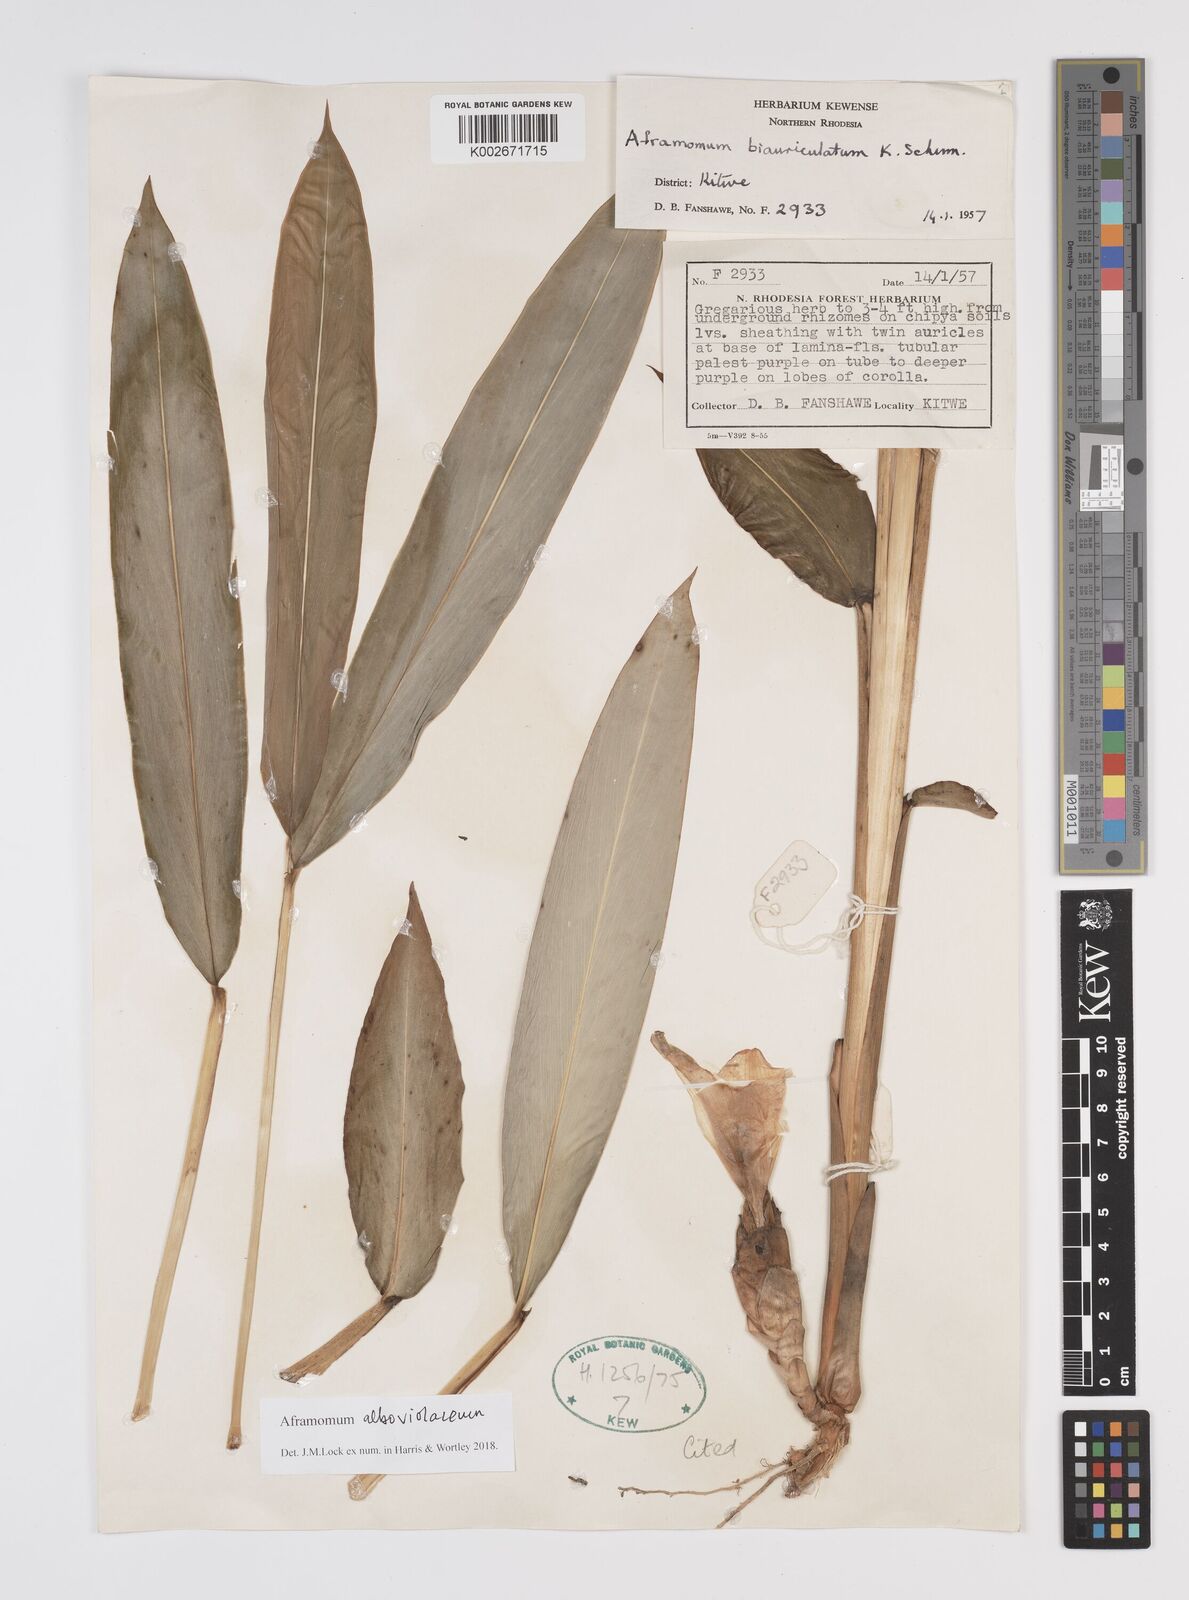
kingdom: Plantae
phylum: Tracheophyta
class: Liliopsida
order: Zingiberales
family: Zingiberaceae
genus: Aframomum
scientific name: Aframomum alboviolaceum
